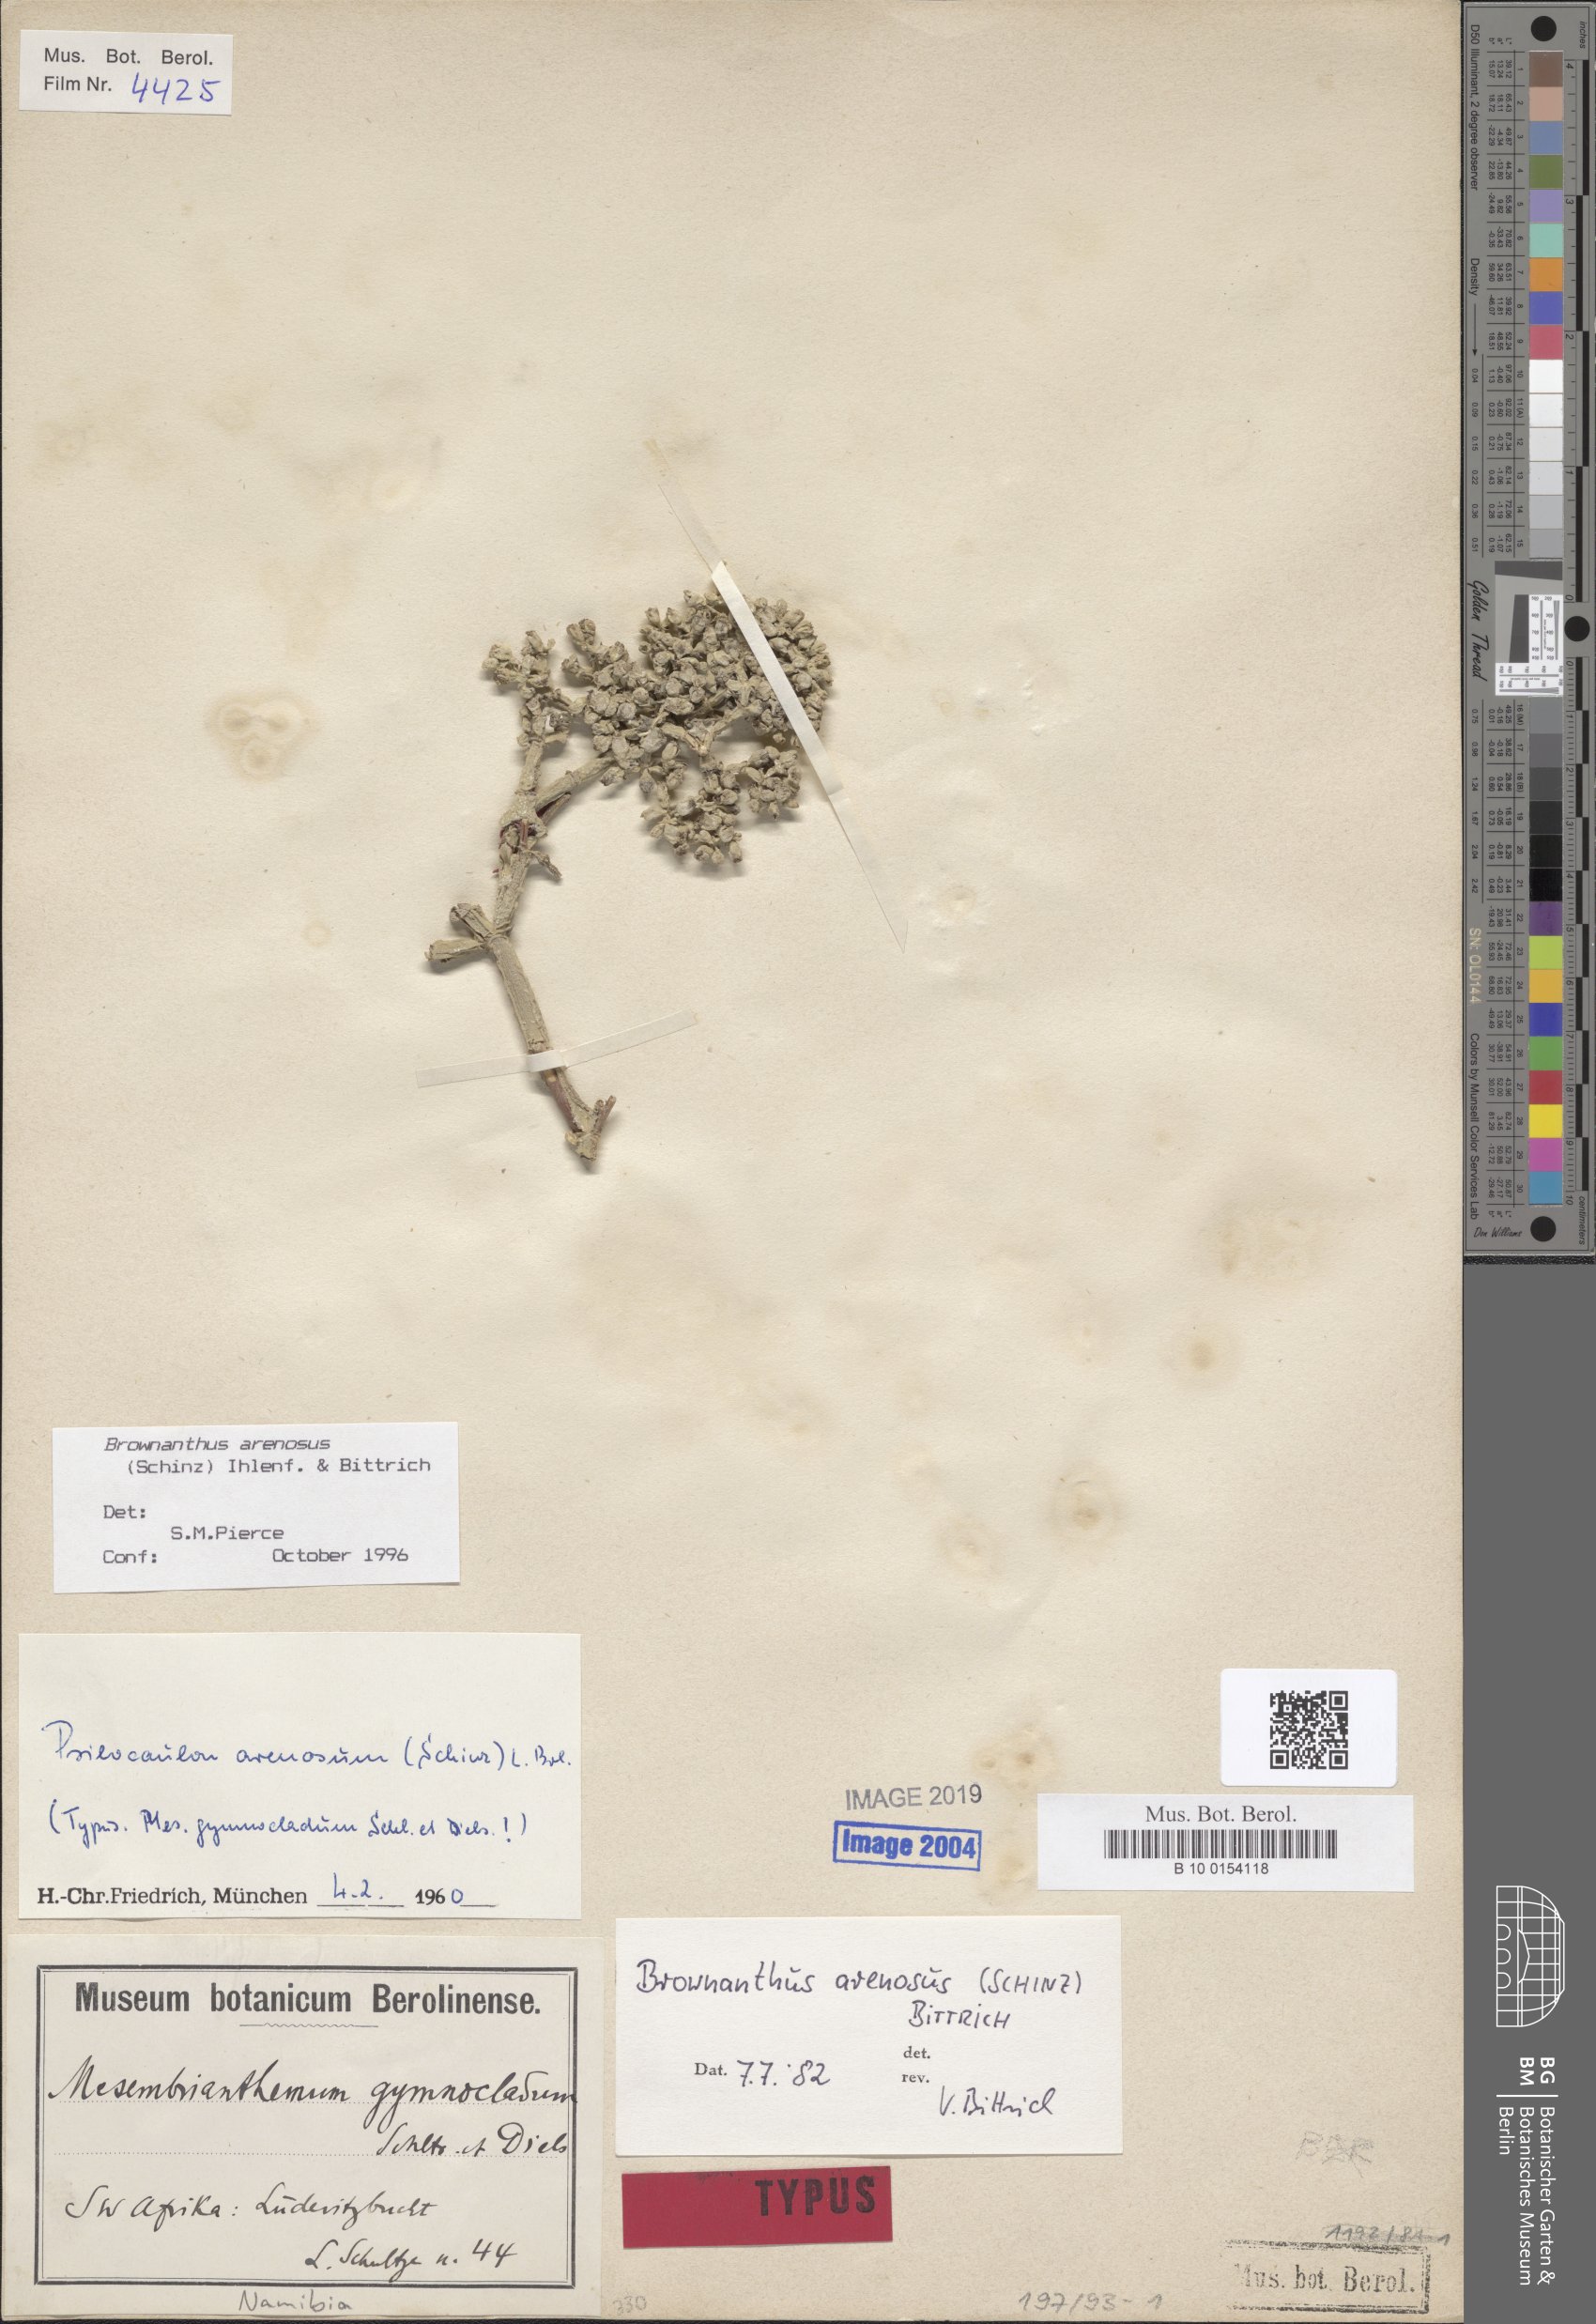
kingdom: Plantae
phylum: Tracheophyta
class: Magnoliopsida
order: Caryophyllales
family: Aizoaceae
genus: Mesembryanthemum
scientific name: Mesembryanthemum schlichtianum
